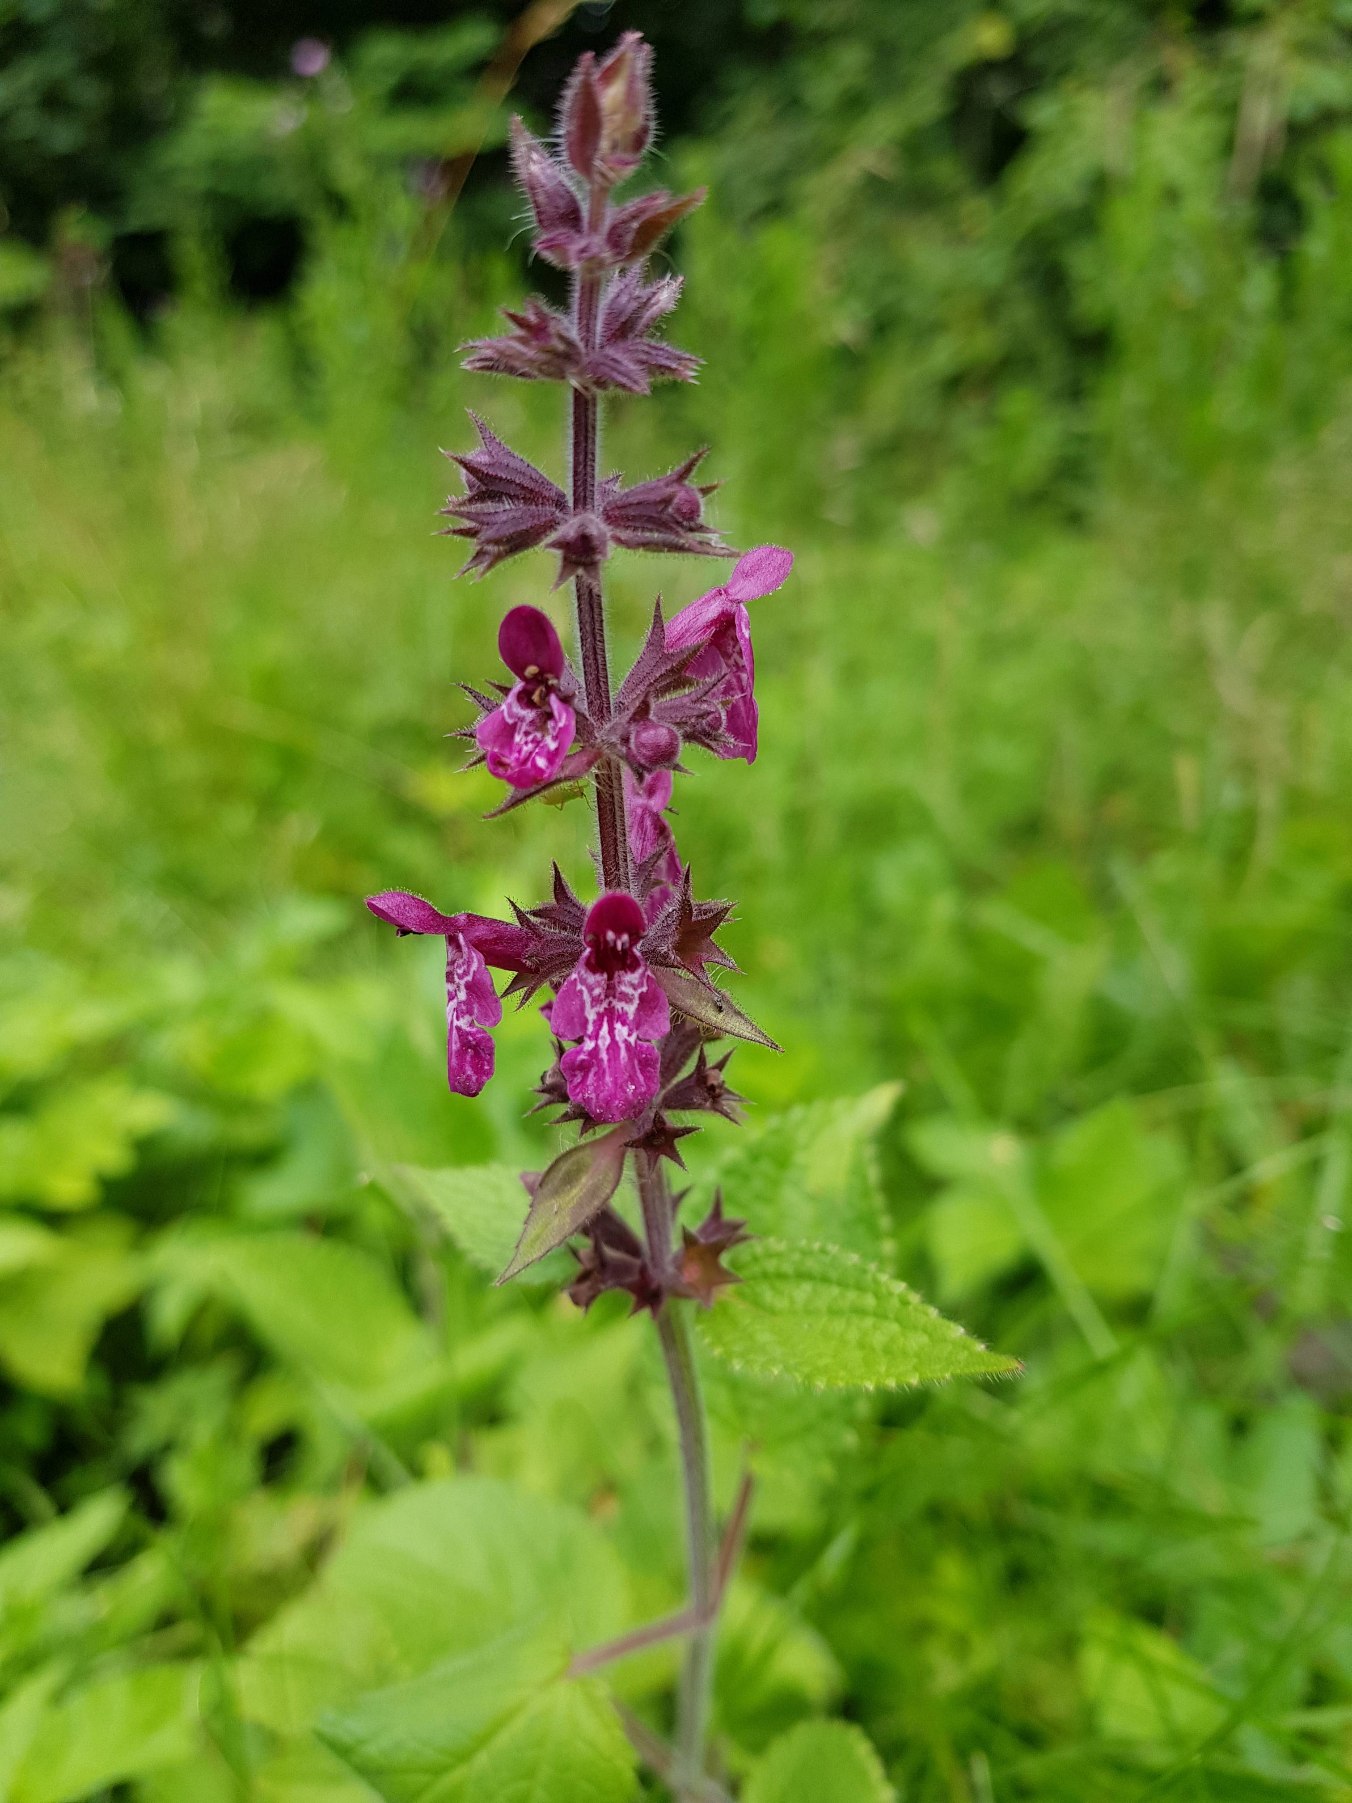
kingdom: Plantae
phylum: Tracheophyta
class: Magnoliopsida
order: Lamiales
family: Lamiaceae
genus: Stachys
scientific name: Stachys sylvatica
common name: Skov-galtetand
